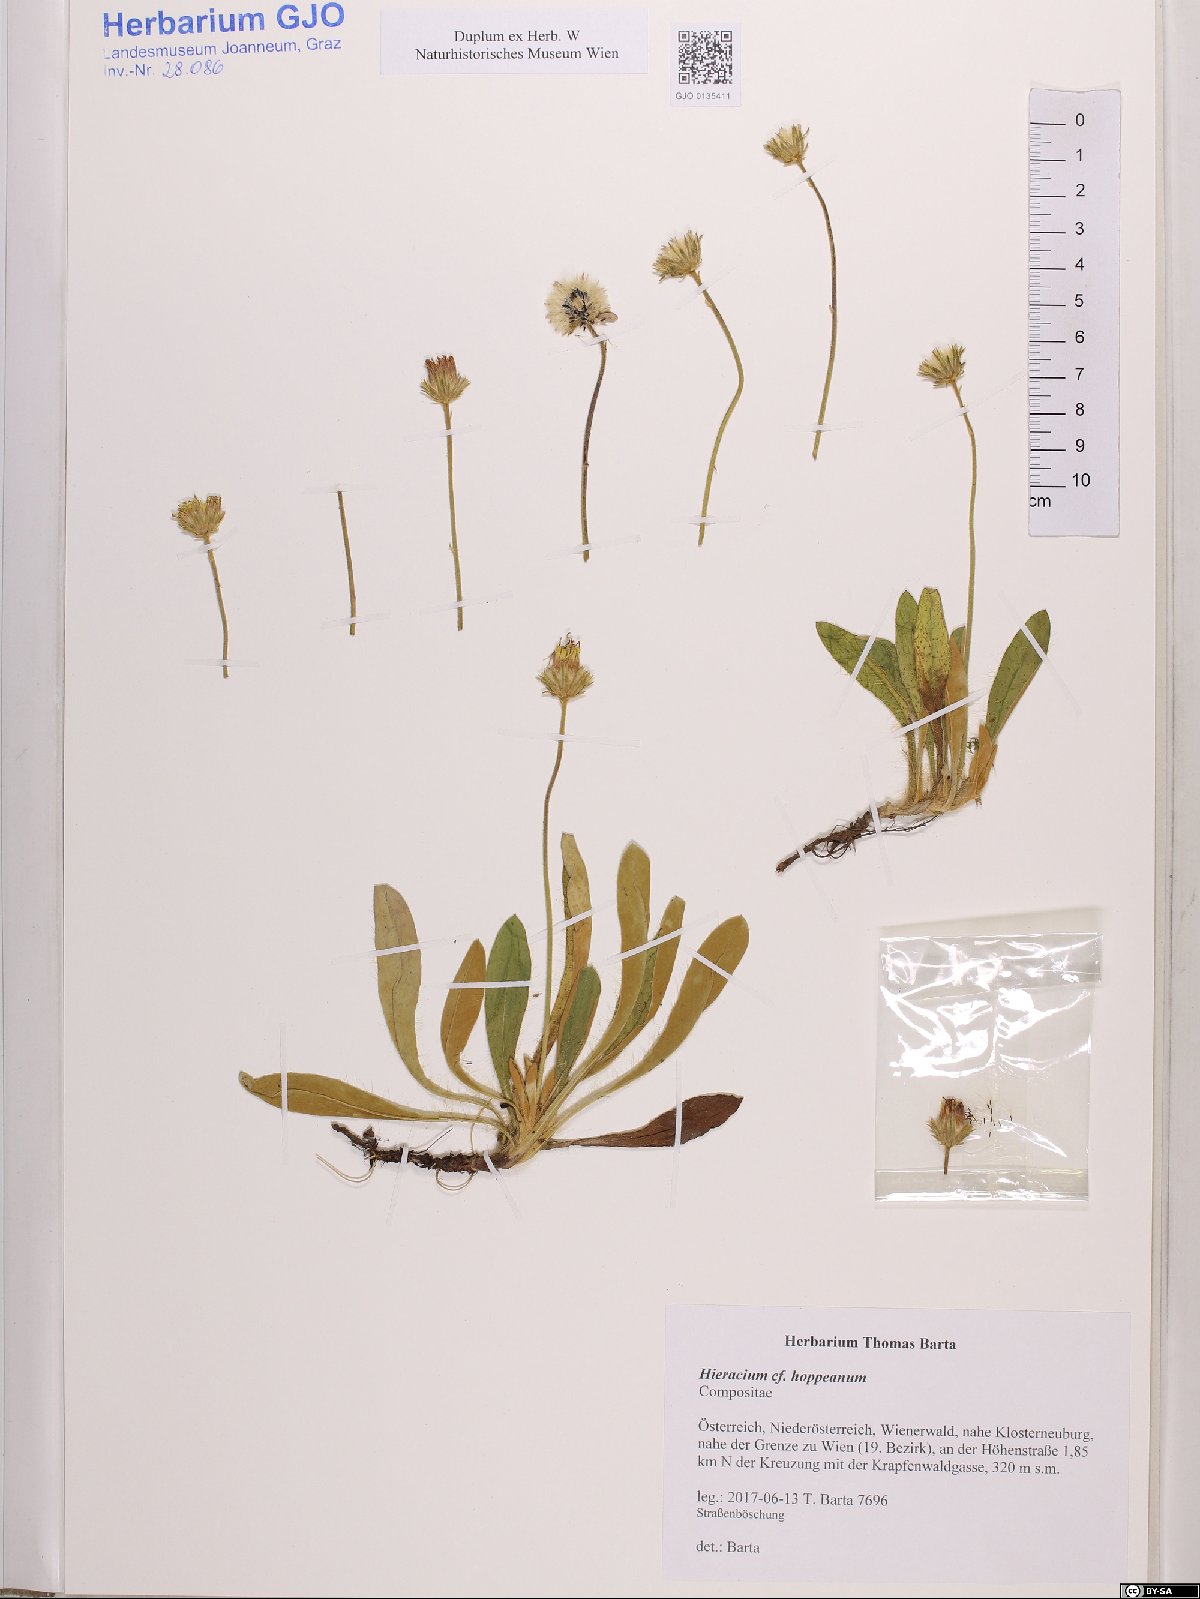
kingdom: Plantae
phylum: Tracheophyta
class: Magnoliopsida
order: Asterales
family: Asteraceae
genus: Pilosella
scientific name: Pilosella hoppeana
